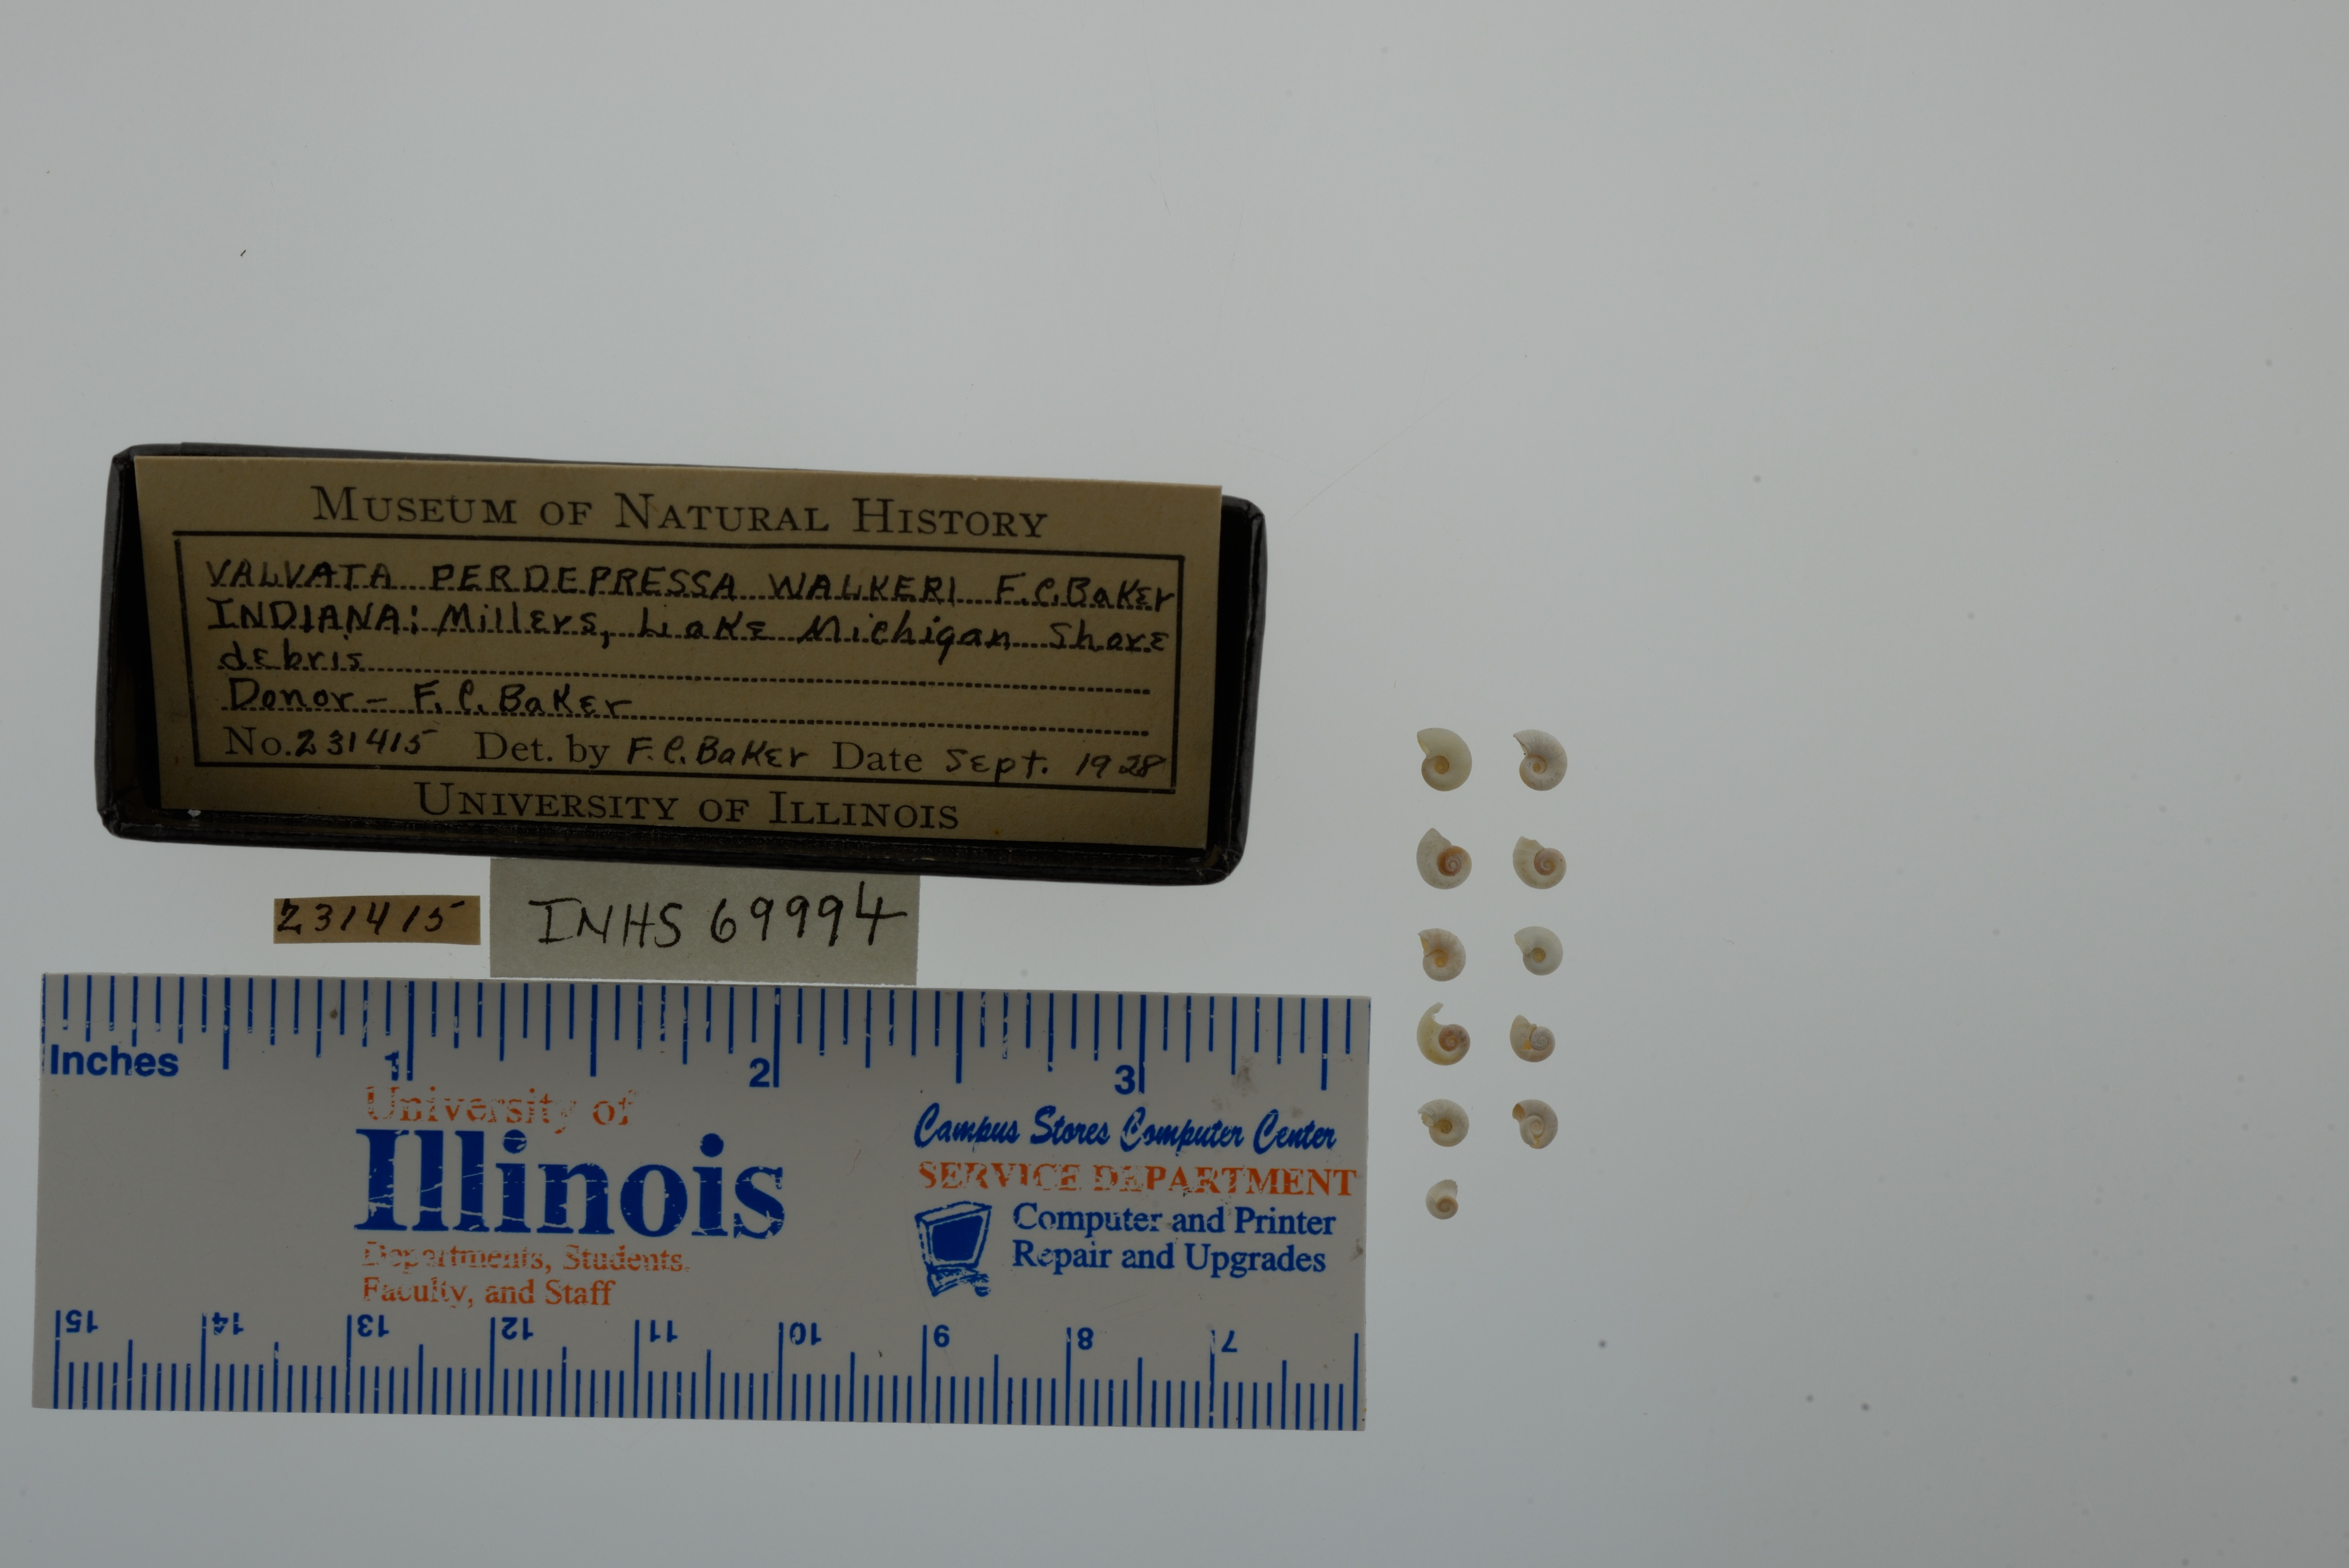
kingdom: Animalia
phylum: Mollusca
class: Gastropoda
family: Valvatidae
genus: Valvata
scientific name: Valvata perdepressa
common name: Purplecap valvata
